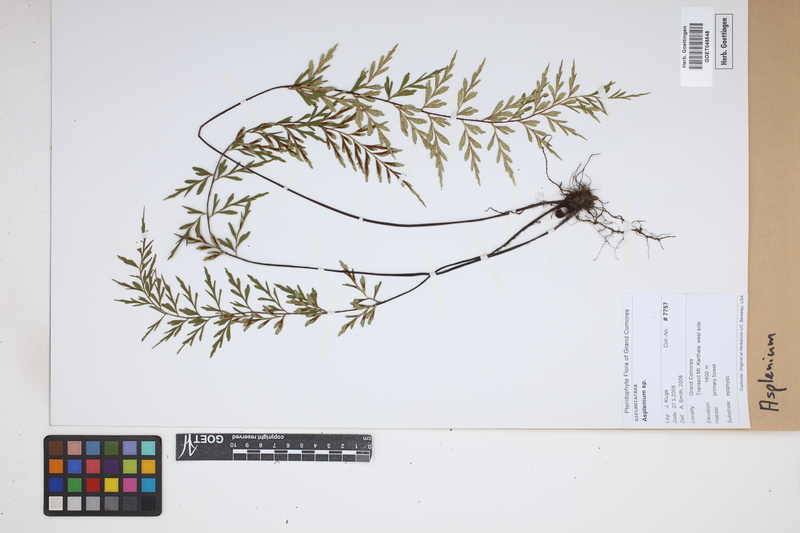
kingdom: Plantae
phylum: Tracheophyta
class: Polypodiopsida
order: Polypodiales
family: Aspleniaceae
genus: Asplenium
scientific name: Asplenium
